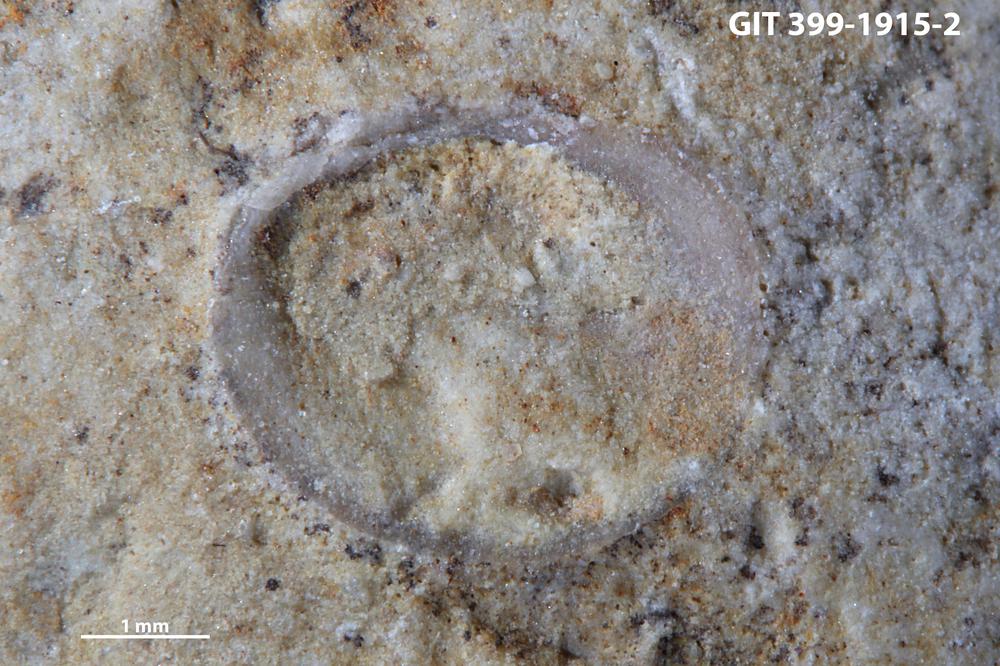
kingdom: Animalia
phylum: Brachiopoda
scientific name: Brachiopoda
